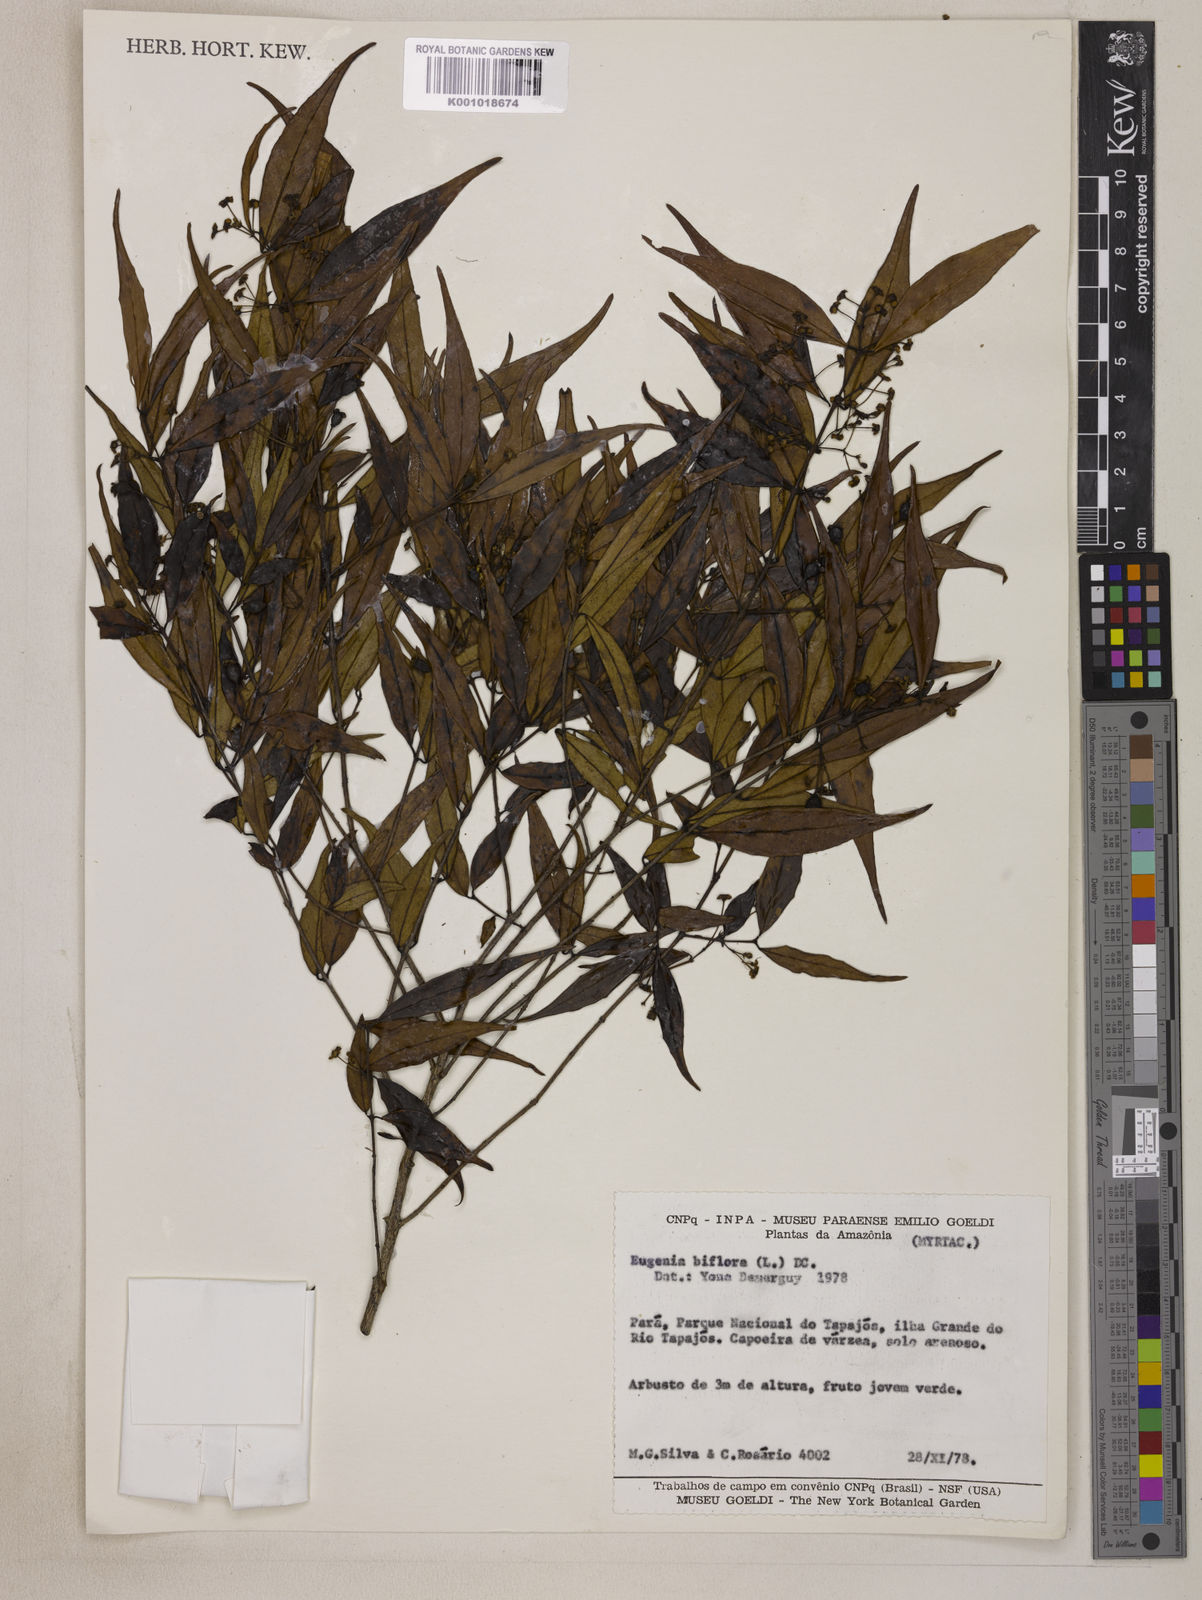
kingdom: Plantae
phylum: Tracheophyta
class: Magnoliopsida
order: Myrtales
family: Myrtaceae
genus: Eugenia
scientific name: Eugenia biflora
